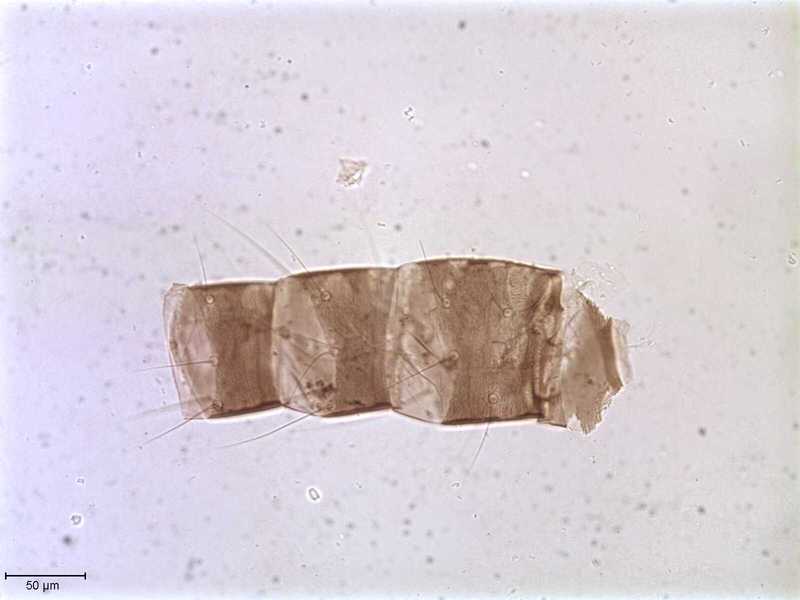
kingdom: Animalia
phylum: Arthropoda
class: Arachnida
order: Mesostigmata
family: Halarachnidae
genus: Orthohalarachne
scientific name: Orthohalarachne letalis
